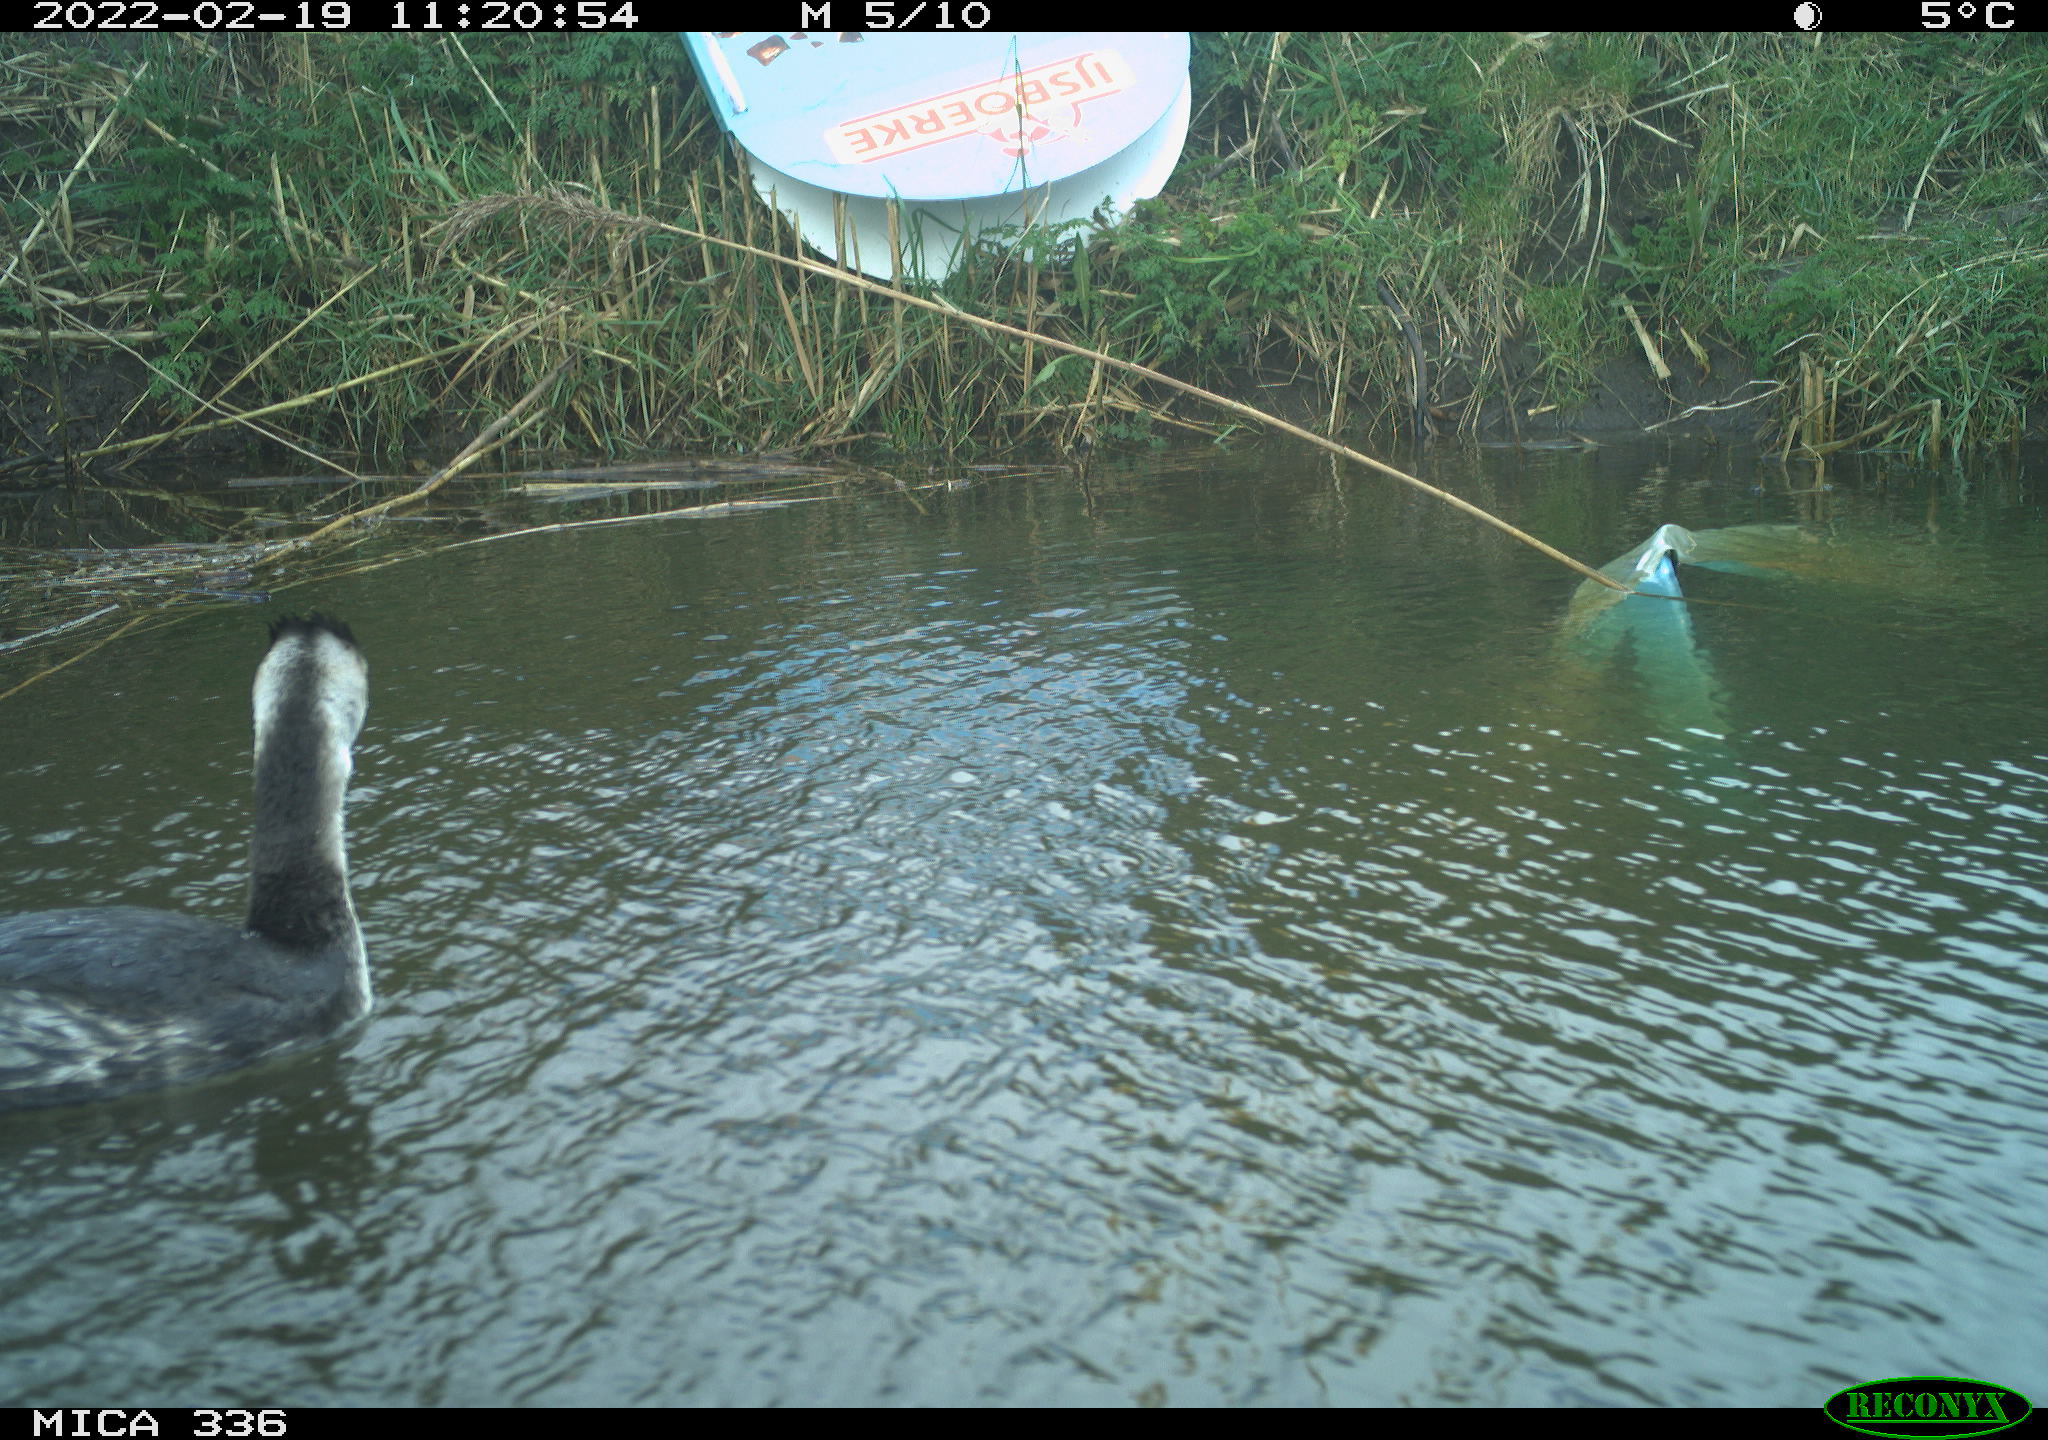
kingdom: Animalia
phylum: Chordata
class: Aves
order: Podicipediformes
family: Podicipedidae
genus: Podiceps
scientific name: Podiceps cristatus
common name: Great crested grebe
